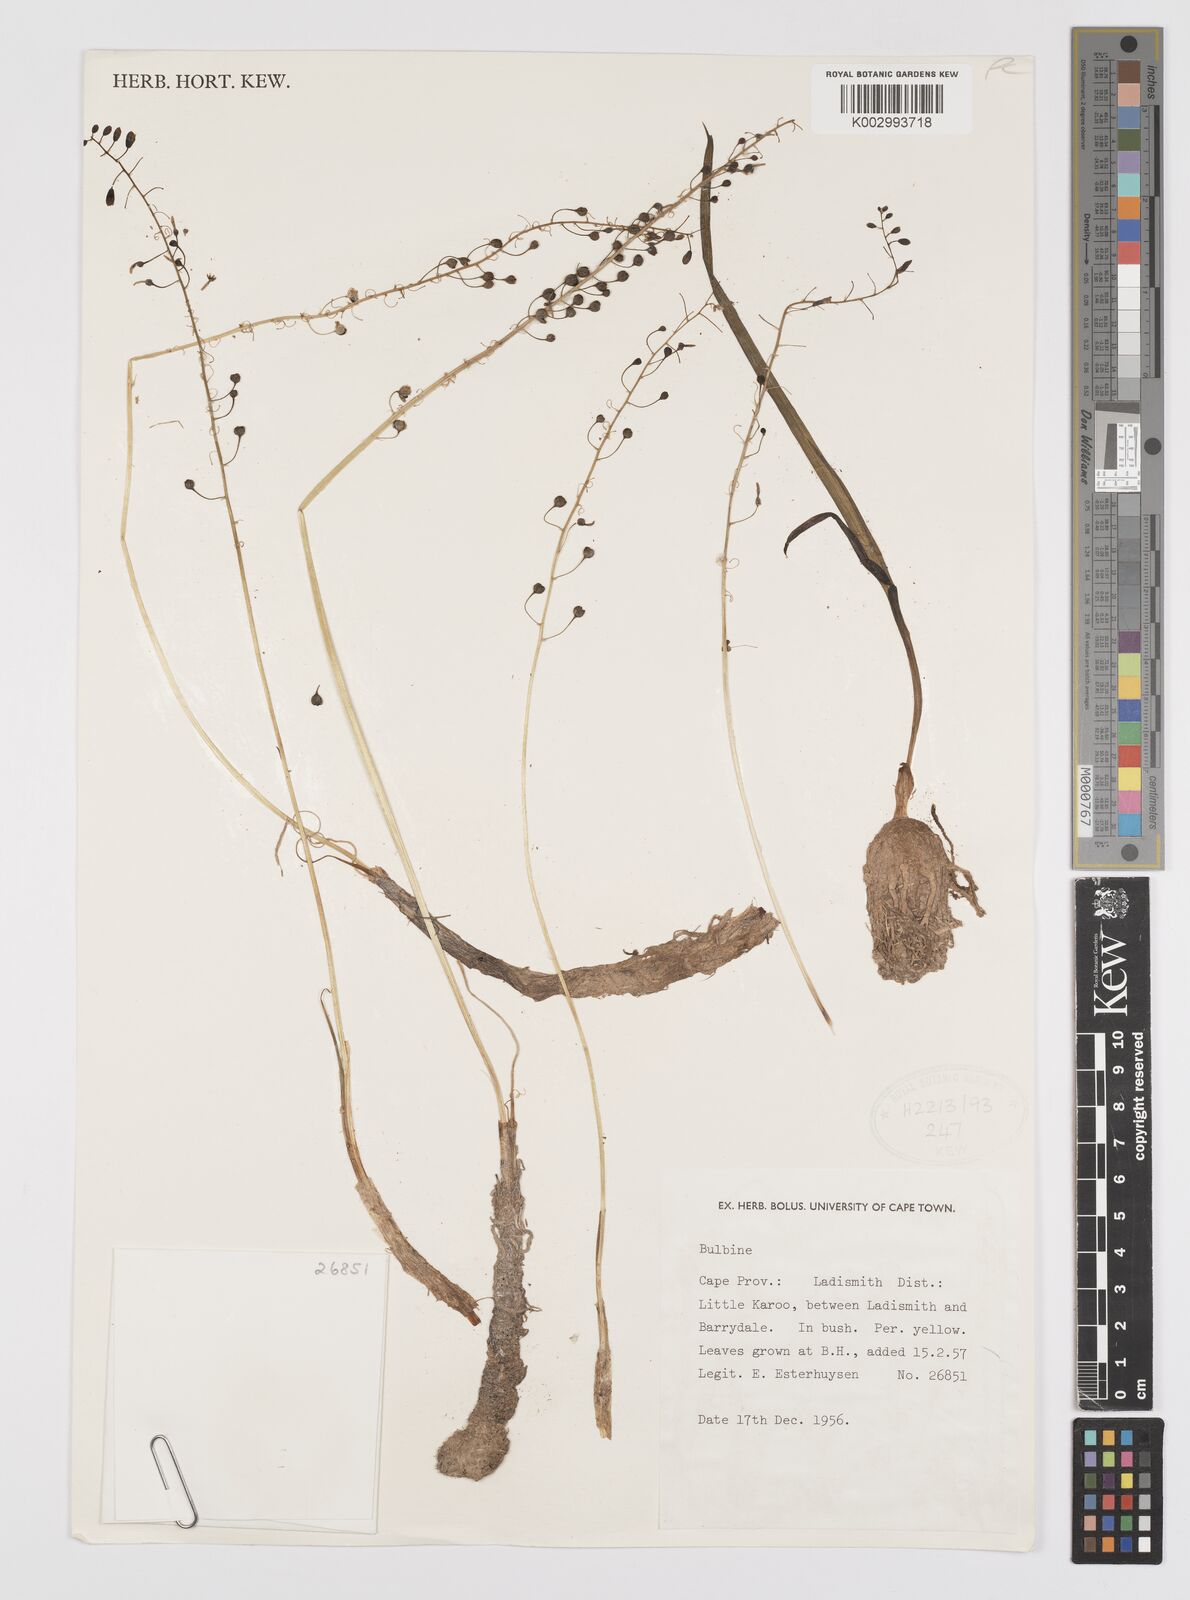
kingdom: Plantae
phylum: Tracheophyta
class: Liliopsida
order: Asparagales
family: Amaryllidaceae
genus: Crinum
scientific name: Crinum
